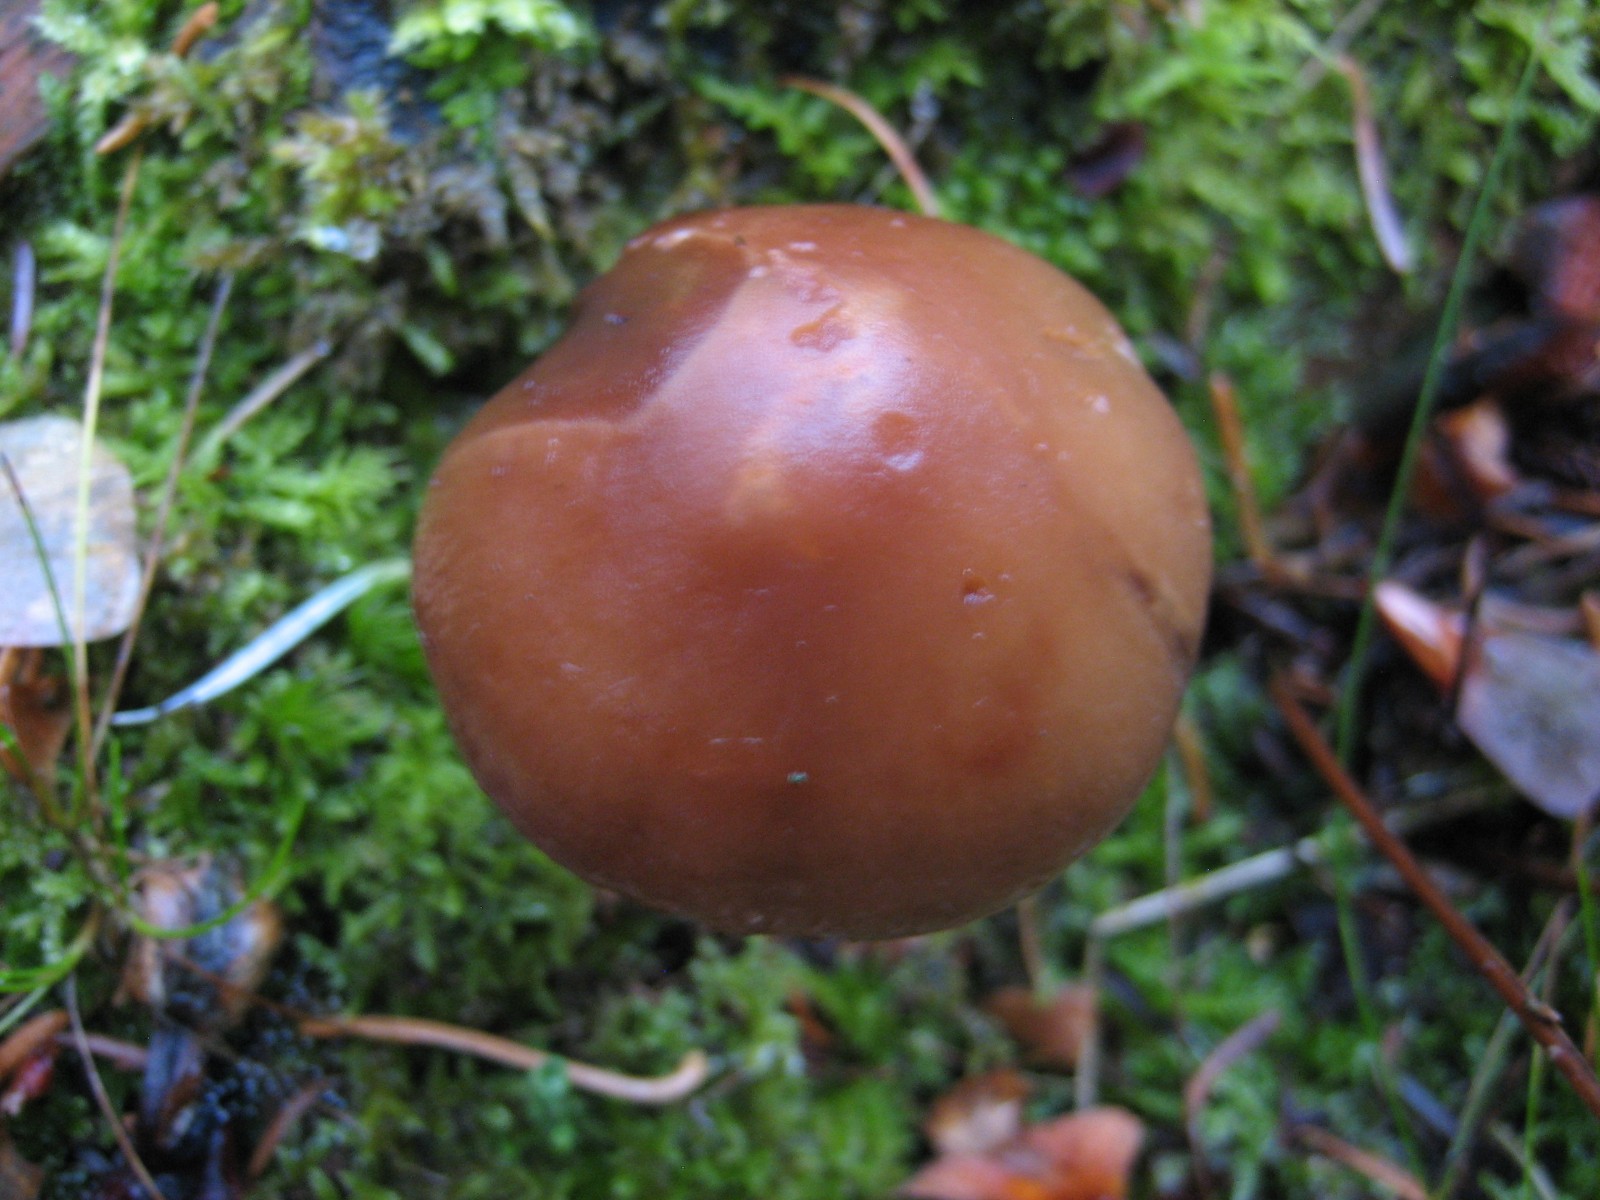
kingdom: Fungi
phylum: Basidiomycota
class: Agaricomycetes
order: Agaricales
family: Strophariaceae
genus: Hypholoma
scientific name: Hypholoma marginatum
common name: enlig svovlhat
